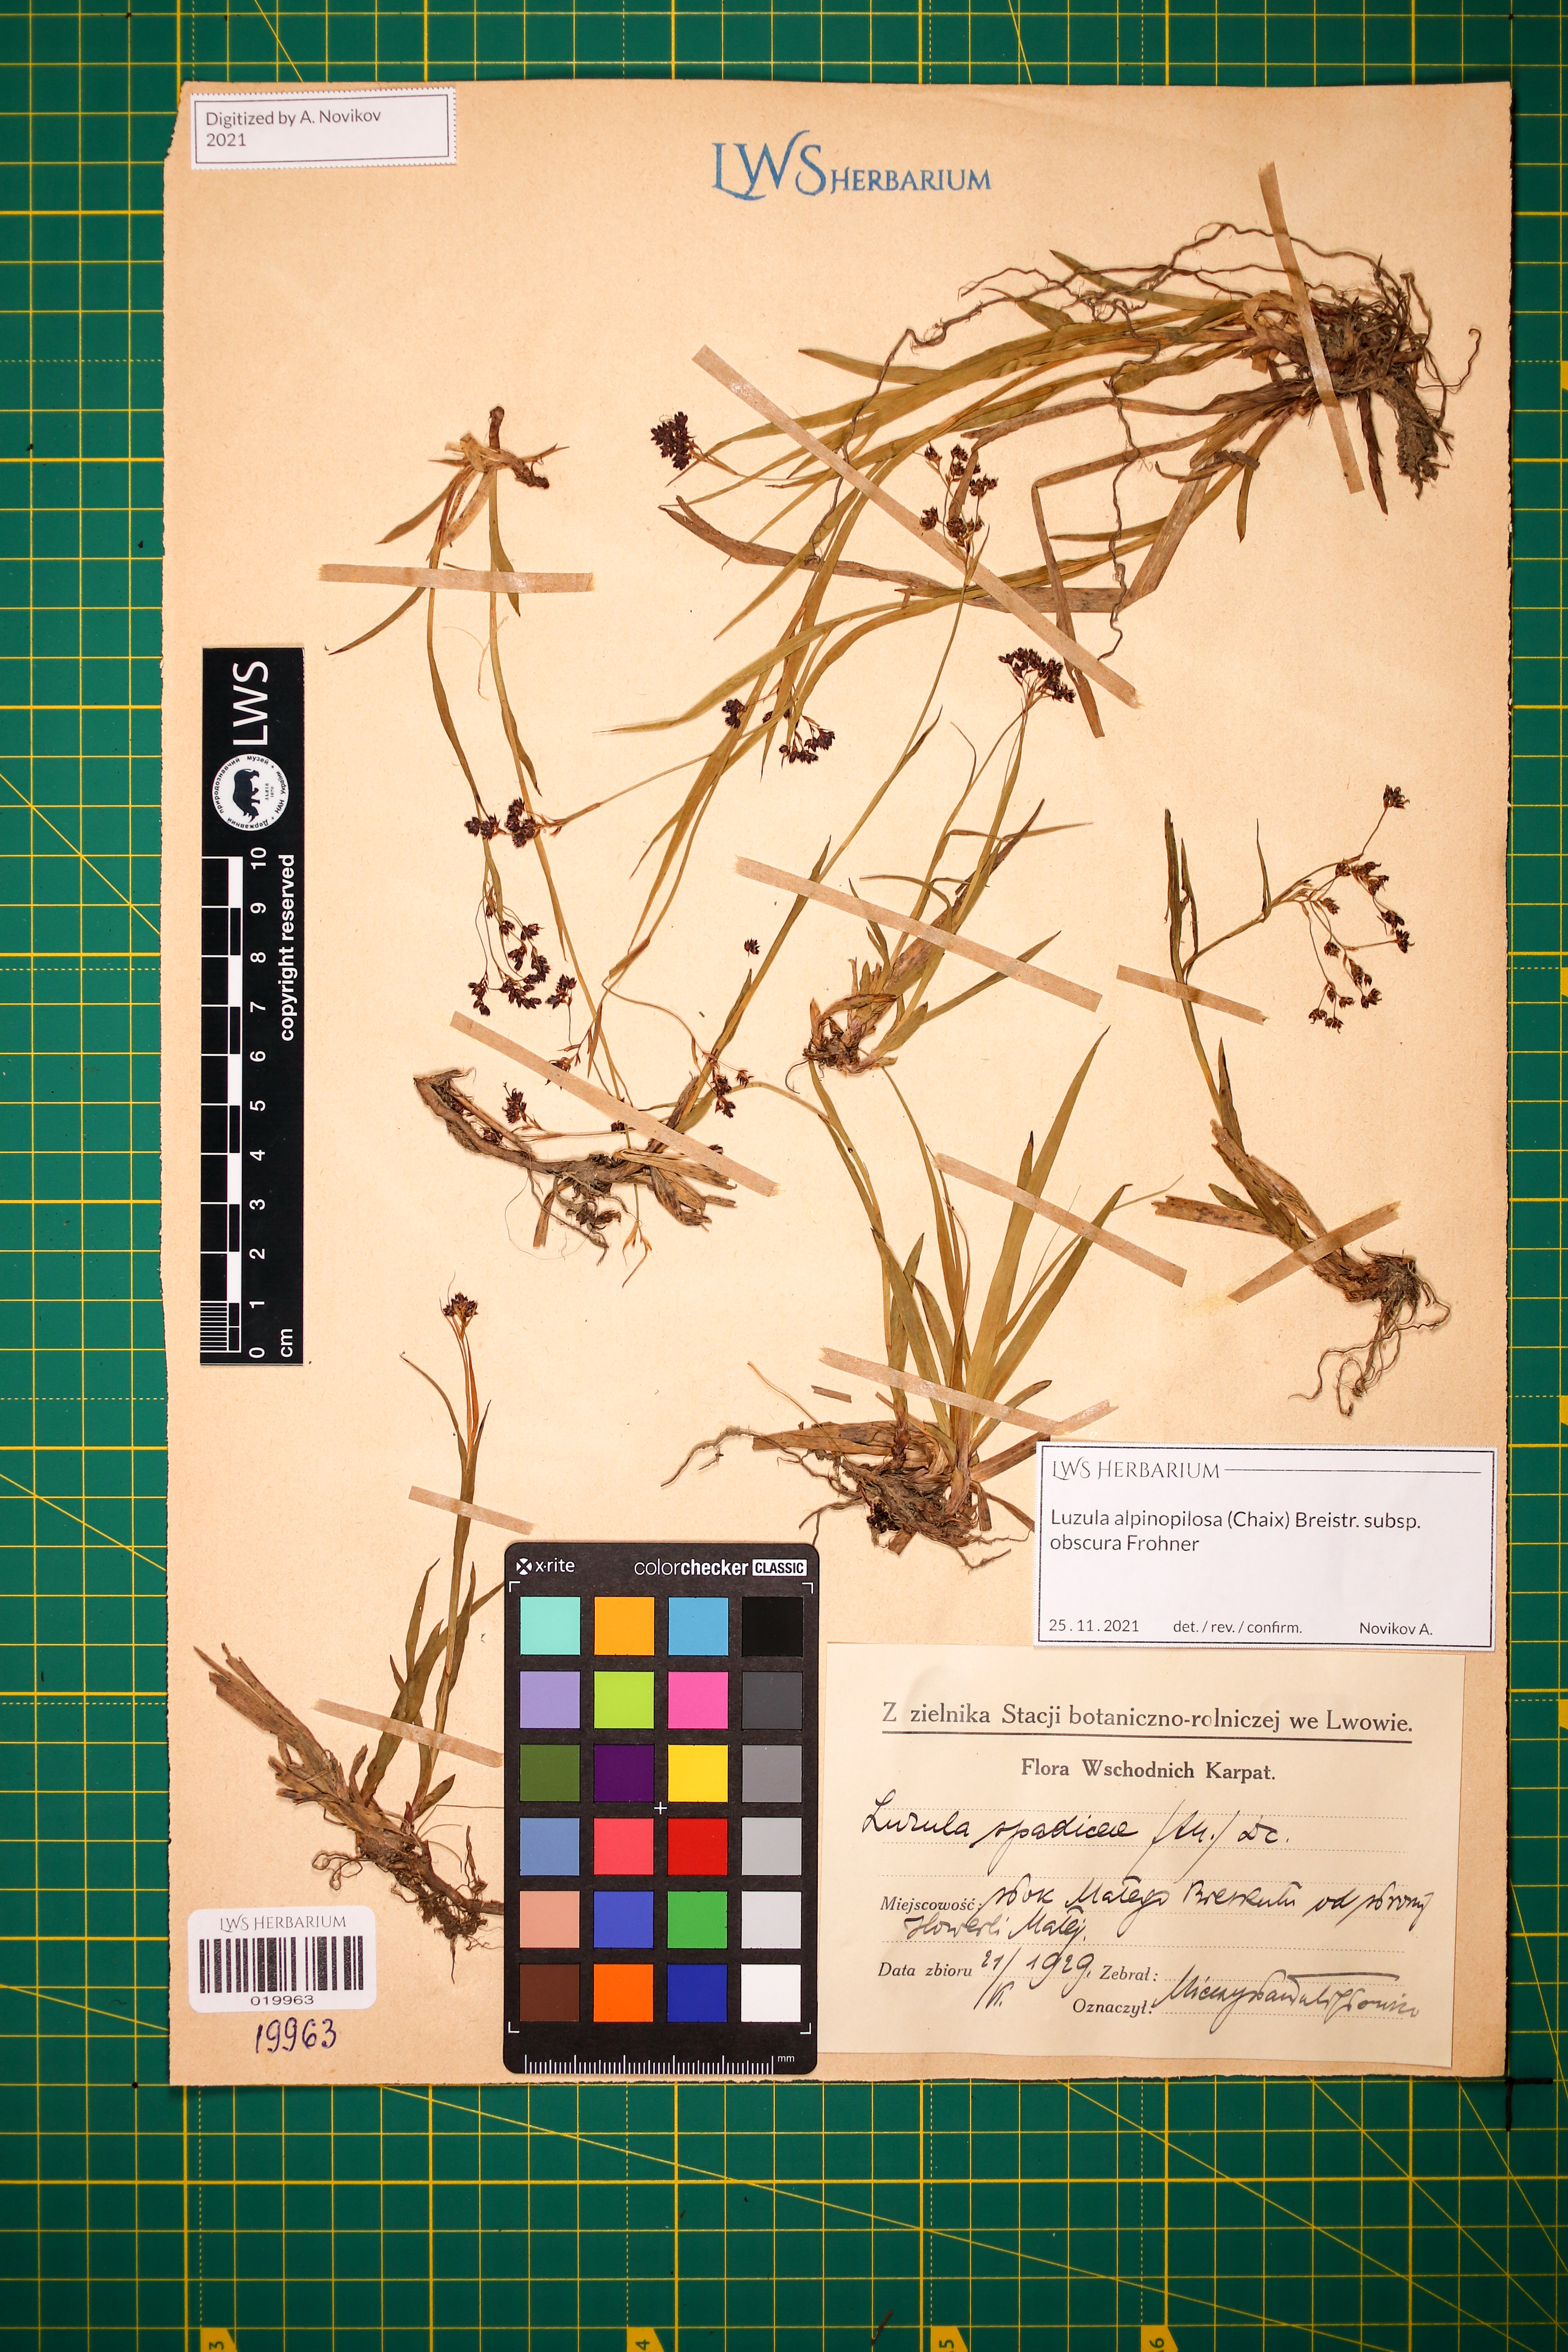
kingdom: Plantae
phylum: Tracheophyta
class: Liliopsida
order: Poales
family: Juncaceae
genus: Luzula
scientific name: Luzula alpinopilosa
